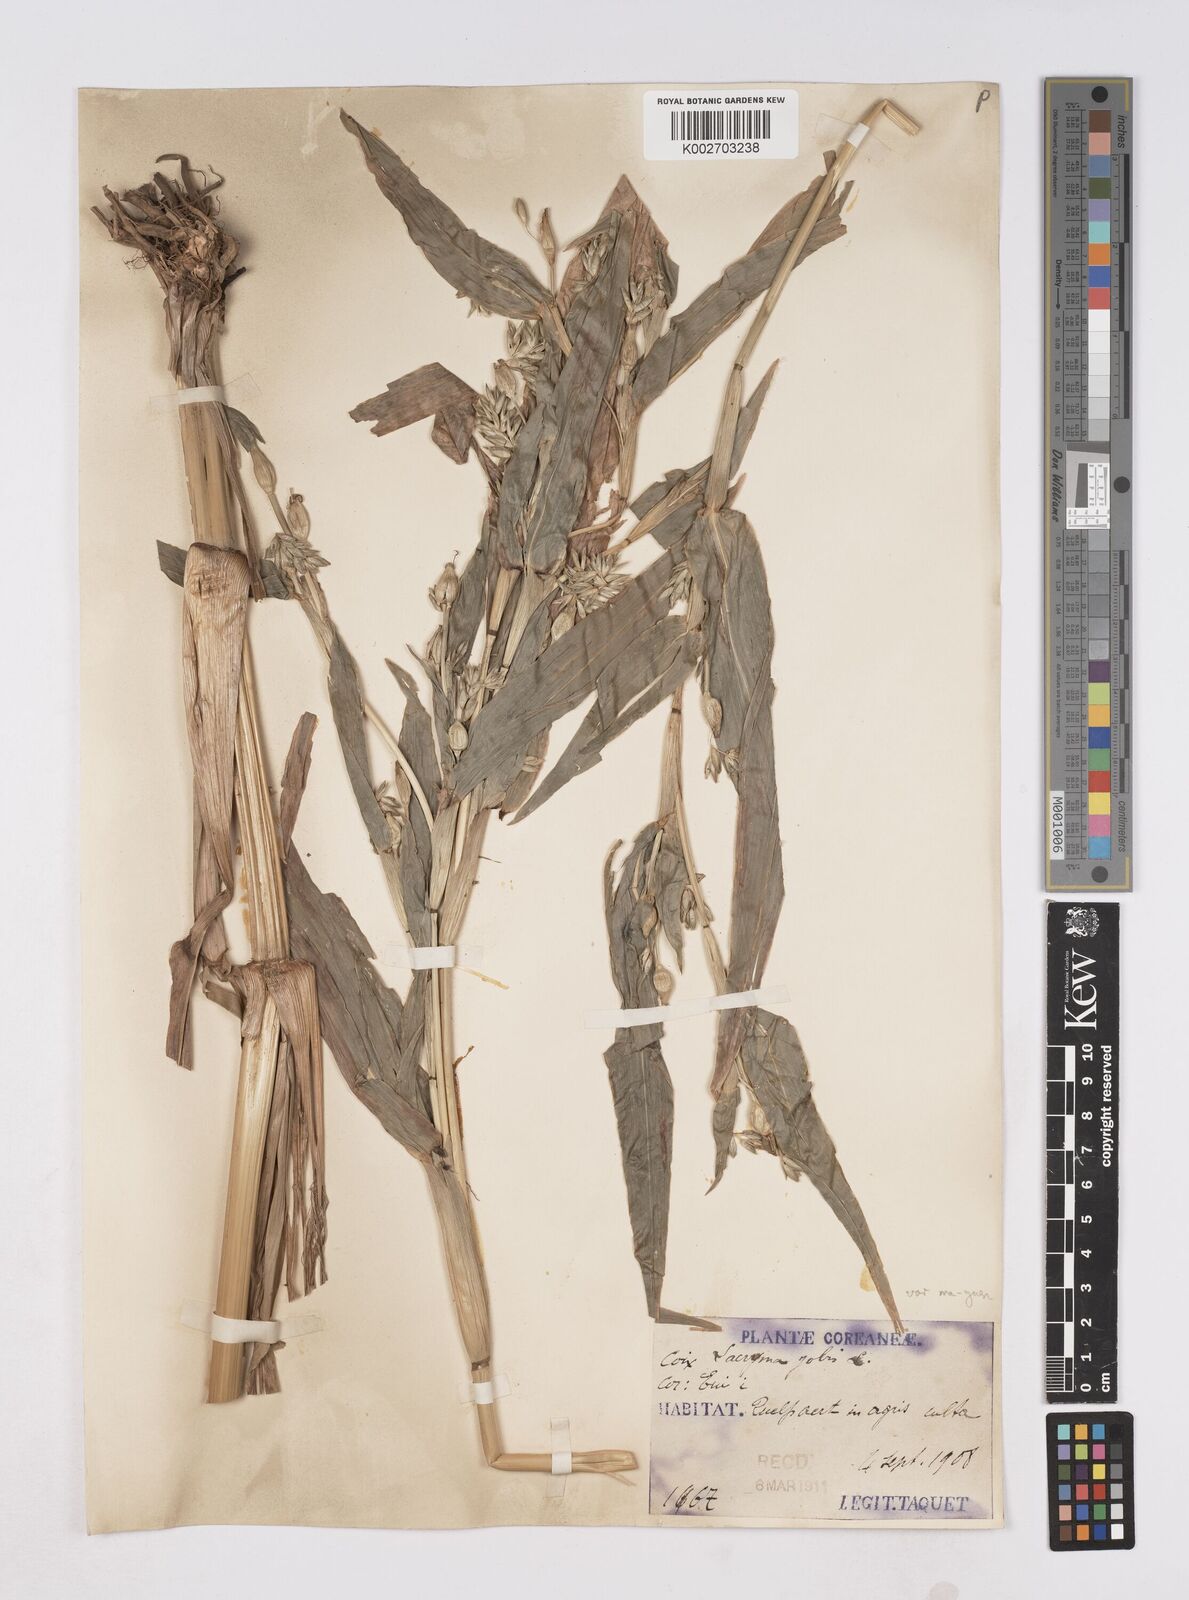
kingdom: Plantae
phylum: Tracheophyta
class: Liliopsida
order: Poales
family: Poaceae
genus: Coix
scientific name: Coix lacryma-jobi
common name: Job's tears
